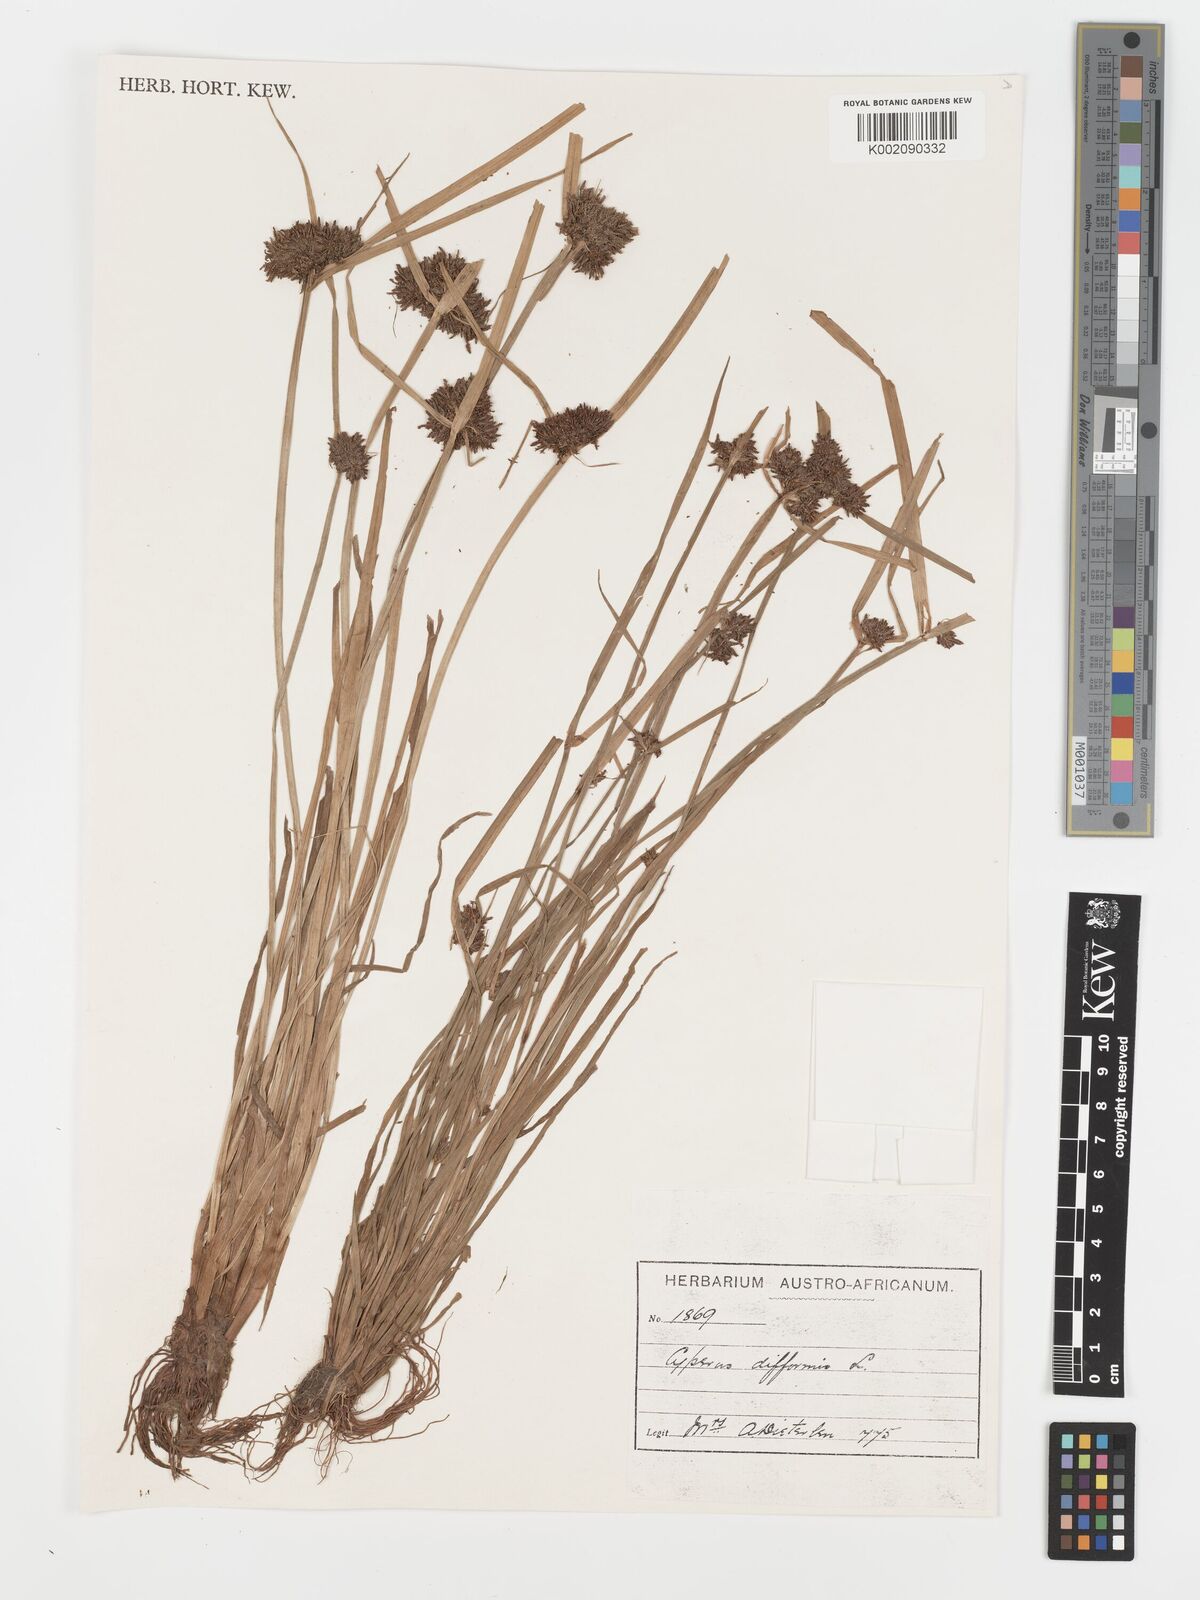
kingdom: Plantae
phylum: Tracheophyta
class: Liliopsida
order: Poales
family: Cyperaceae
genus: Cyperus
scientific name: Cyperus difformis
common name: Variable flatsedge
